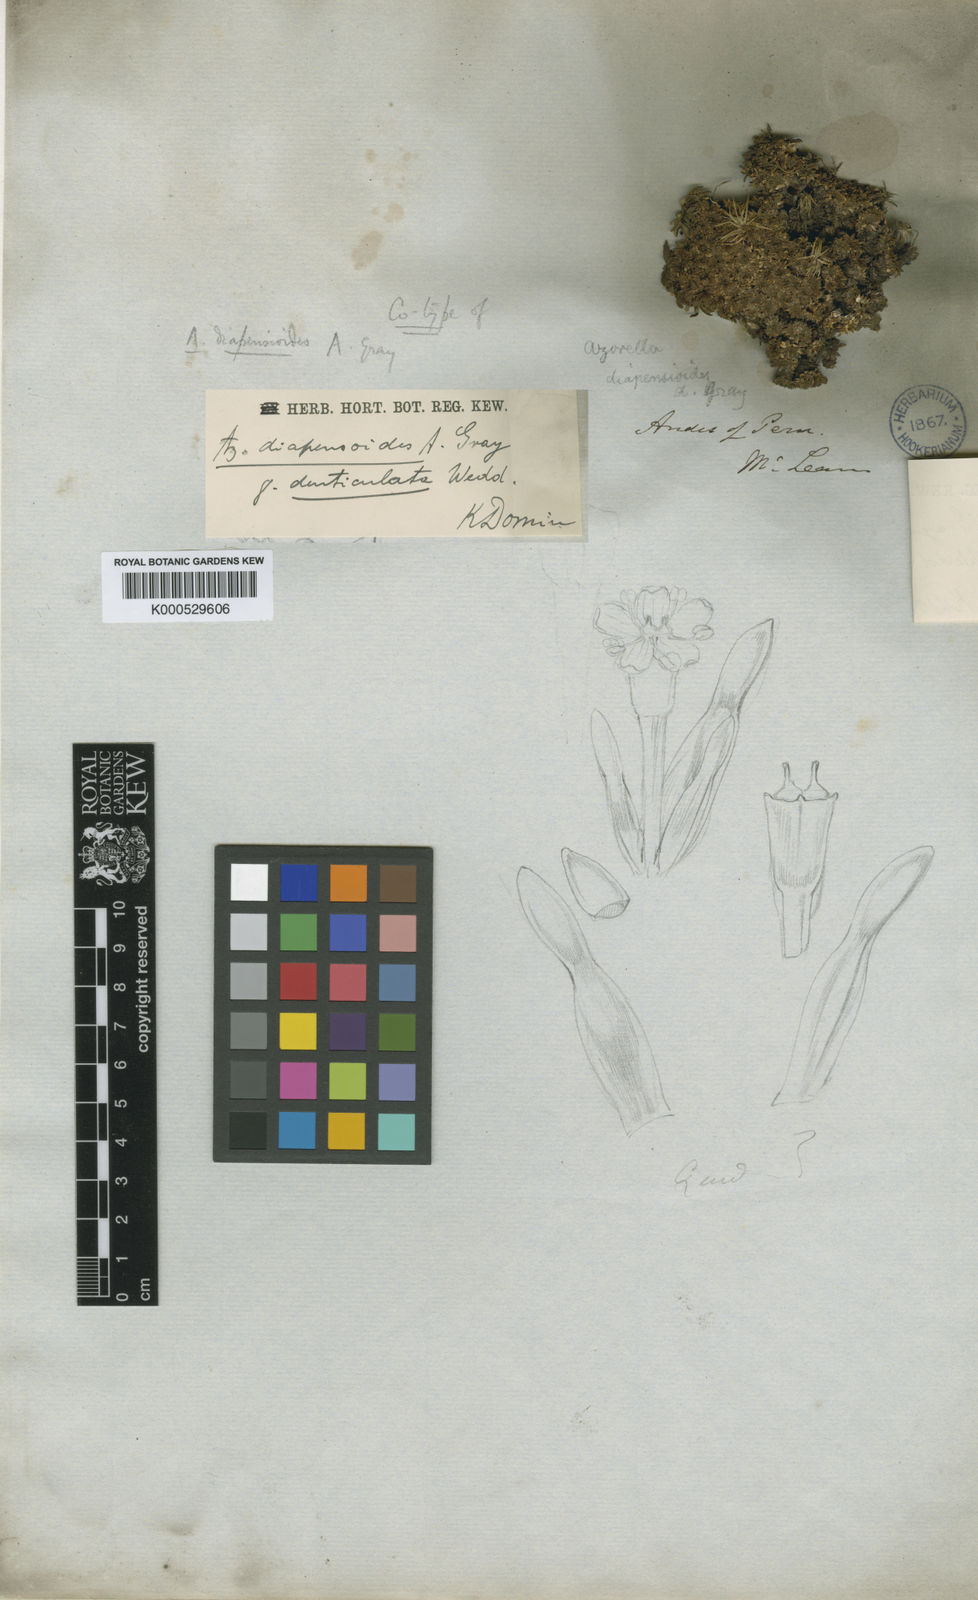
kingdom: Plantae
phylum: Tracheophyta
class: Magnoliopsida
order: Apiales
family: Apiaceae
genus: Azorella
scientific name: Azorella diapensioides
